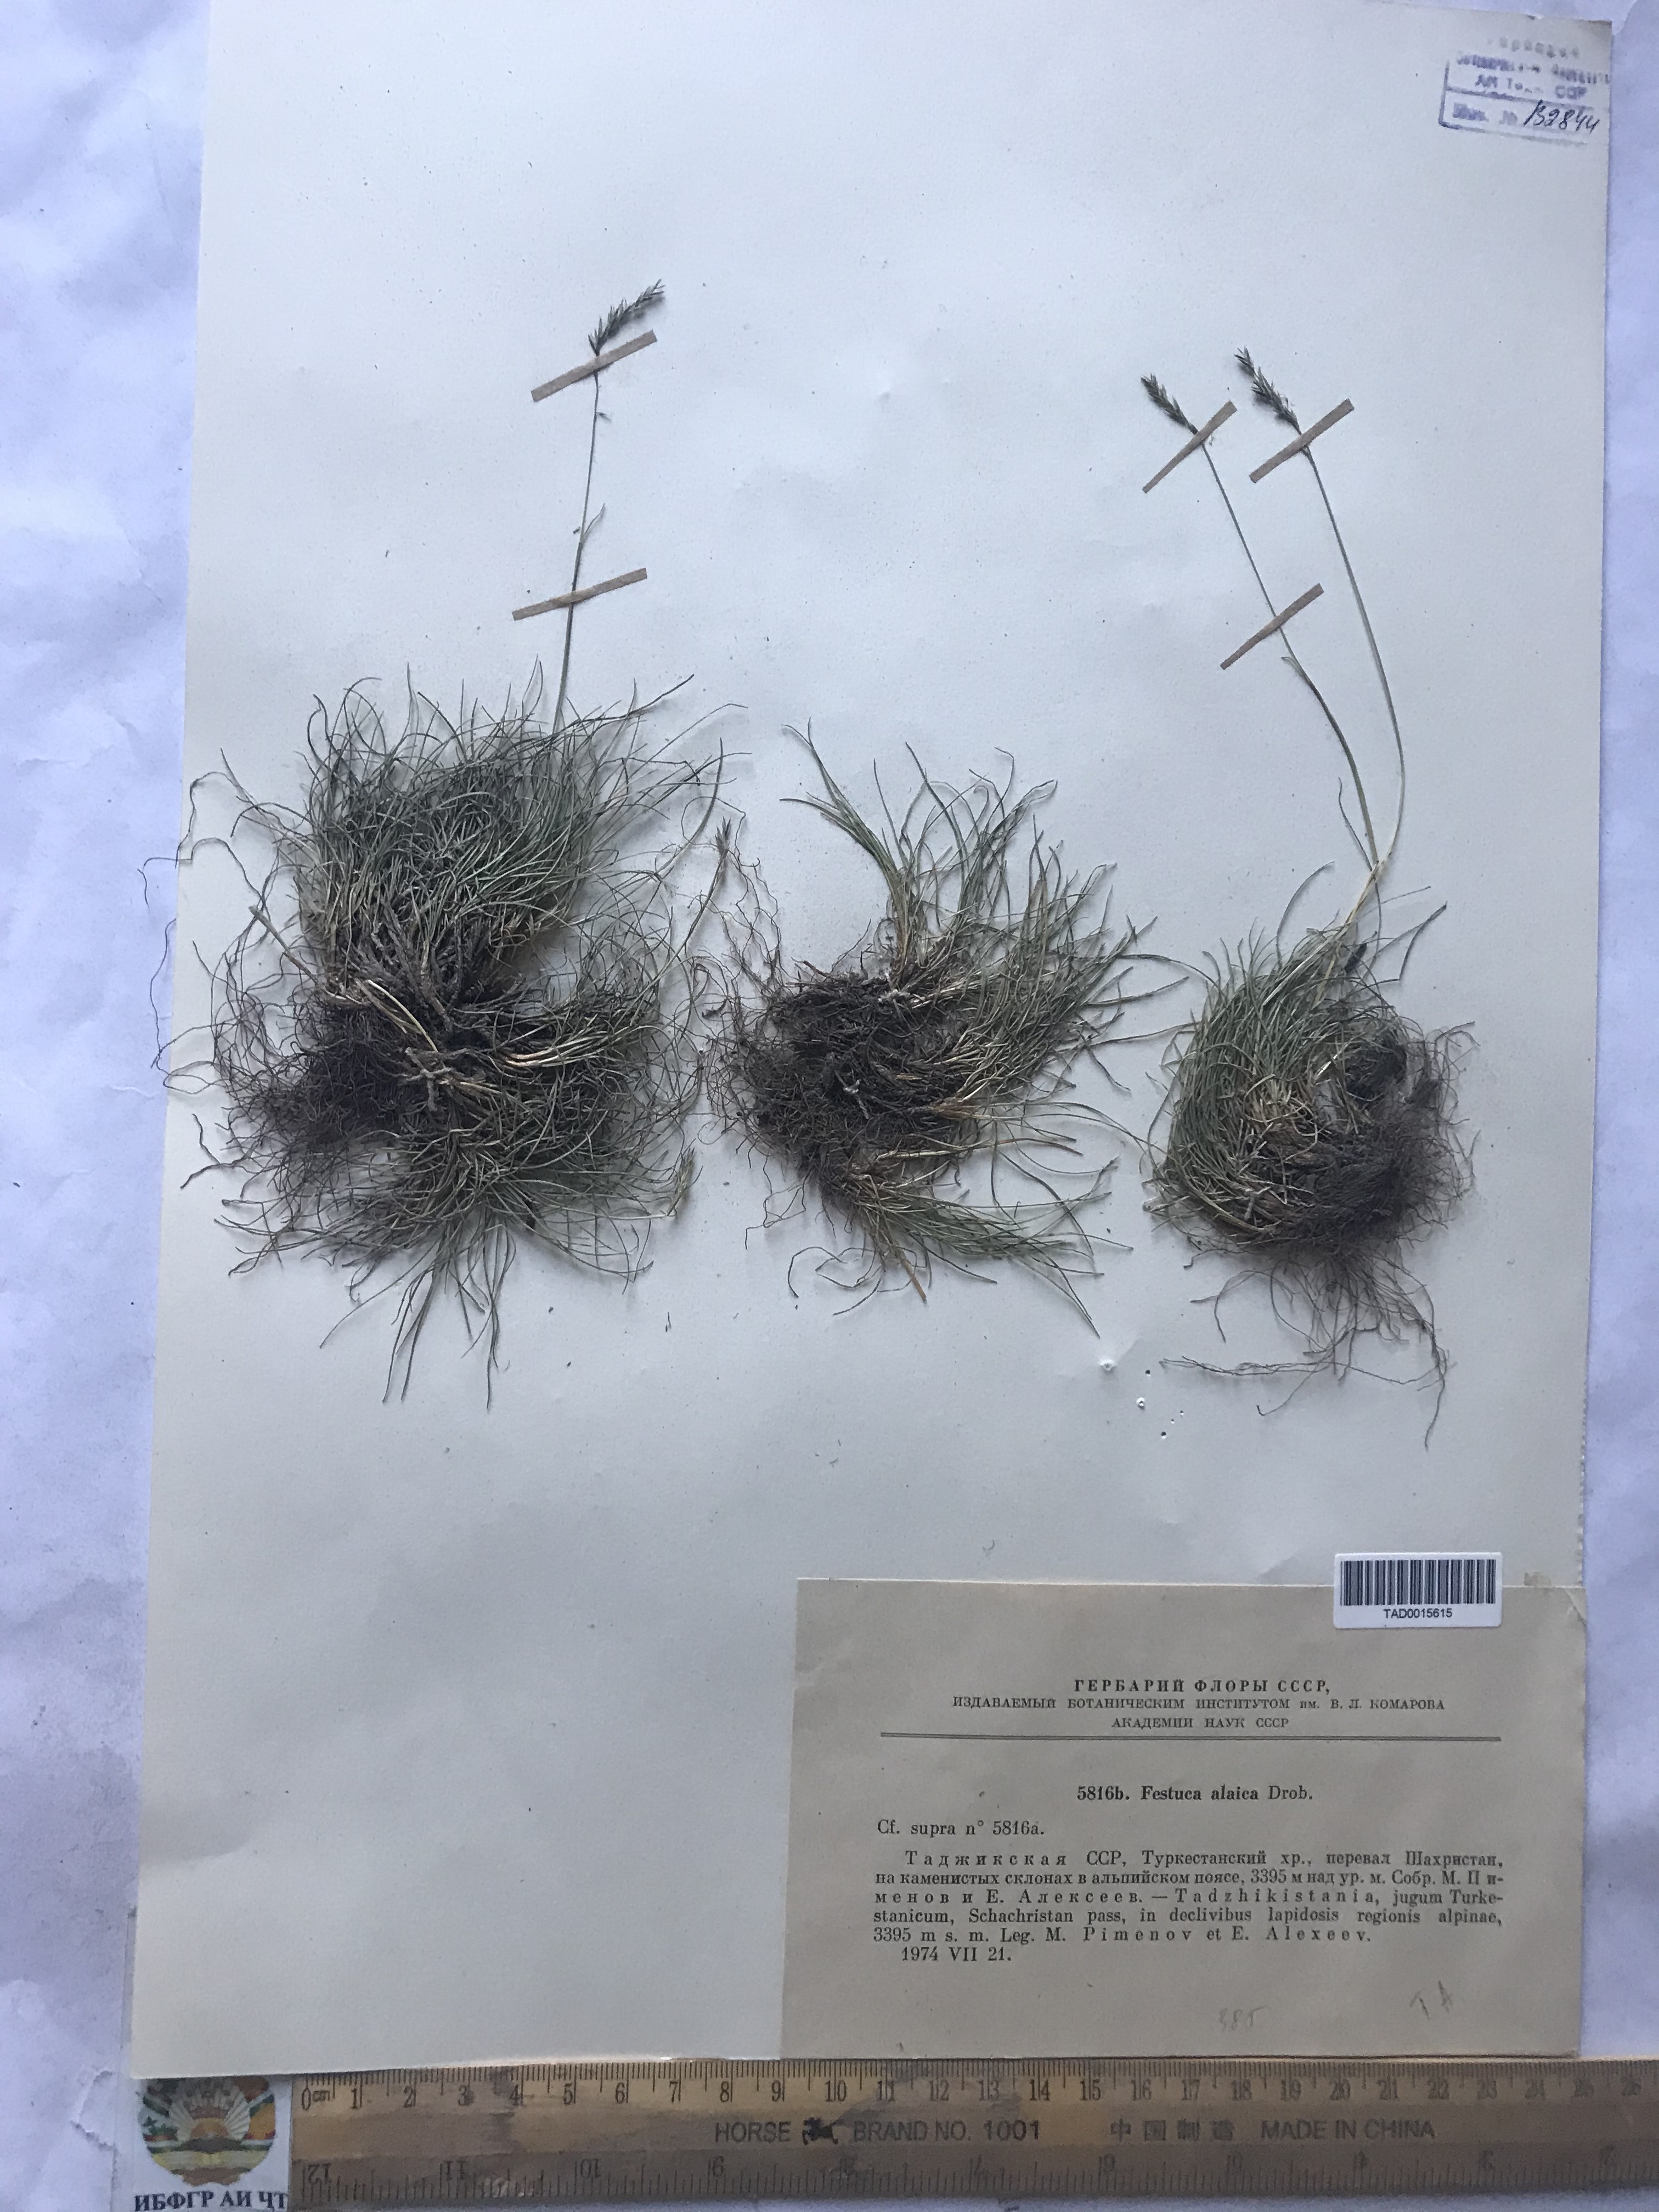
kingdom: Plantae
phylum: Tracheophyta
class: Liliopsida
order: Poales
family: Poaceae
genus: Festuca
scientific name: Festuca alaica
